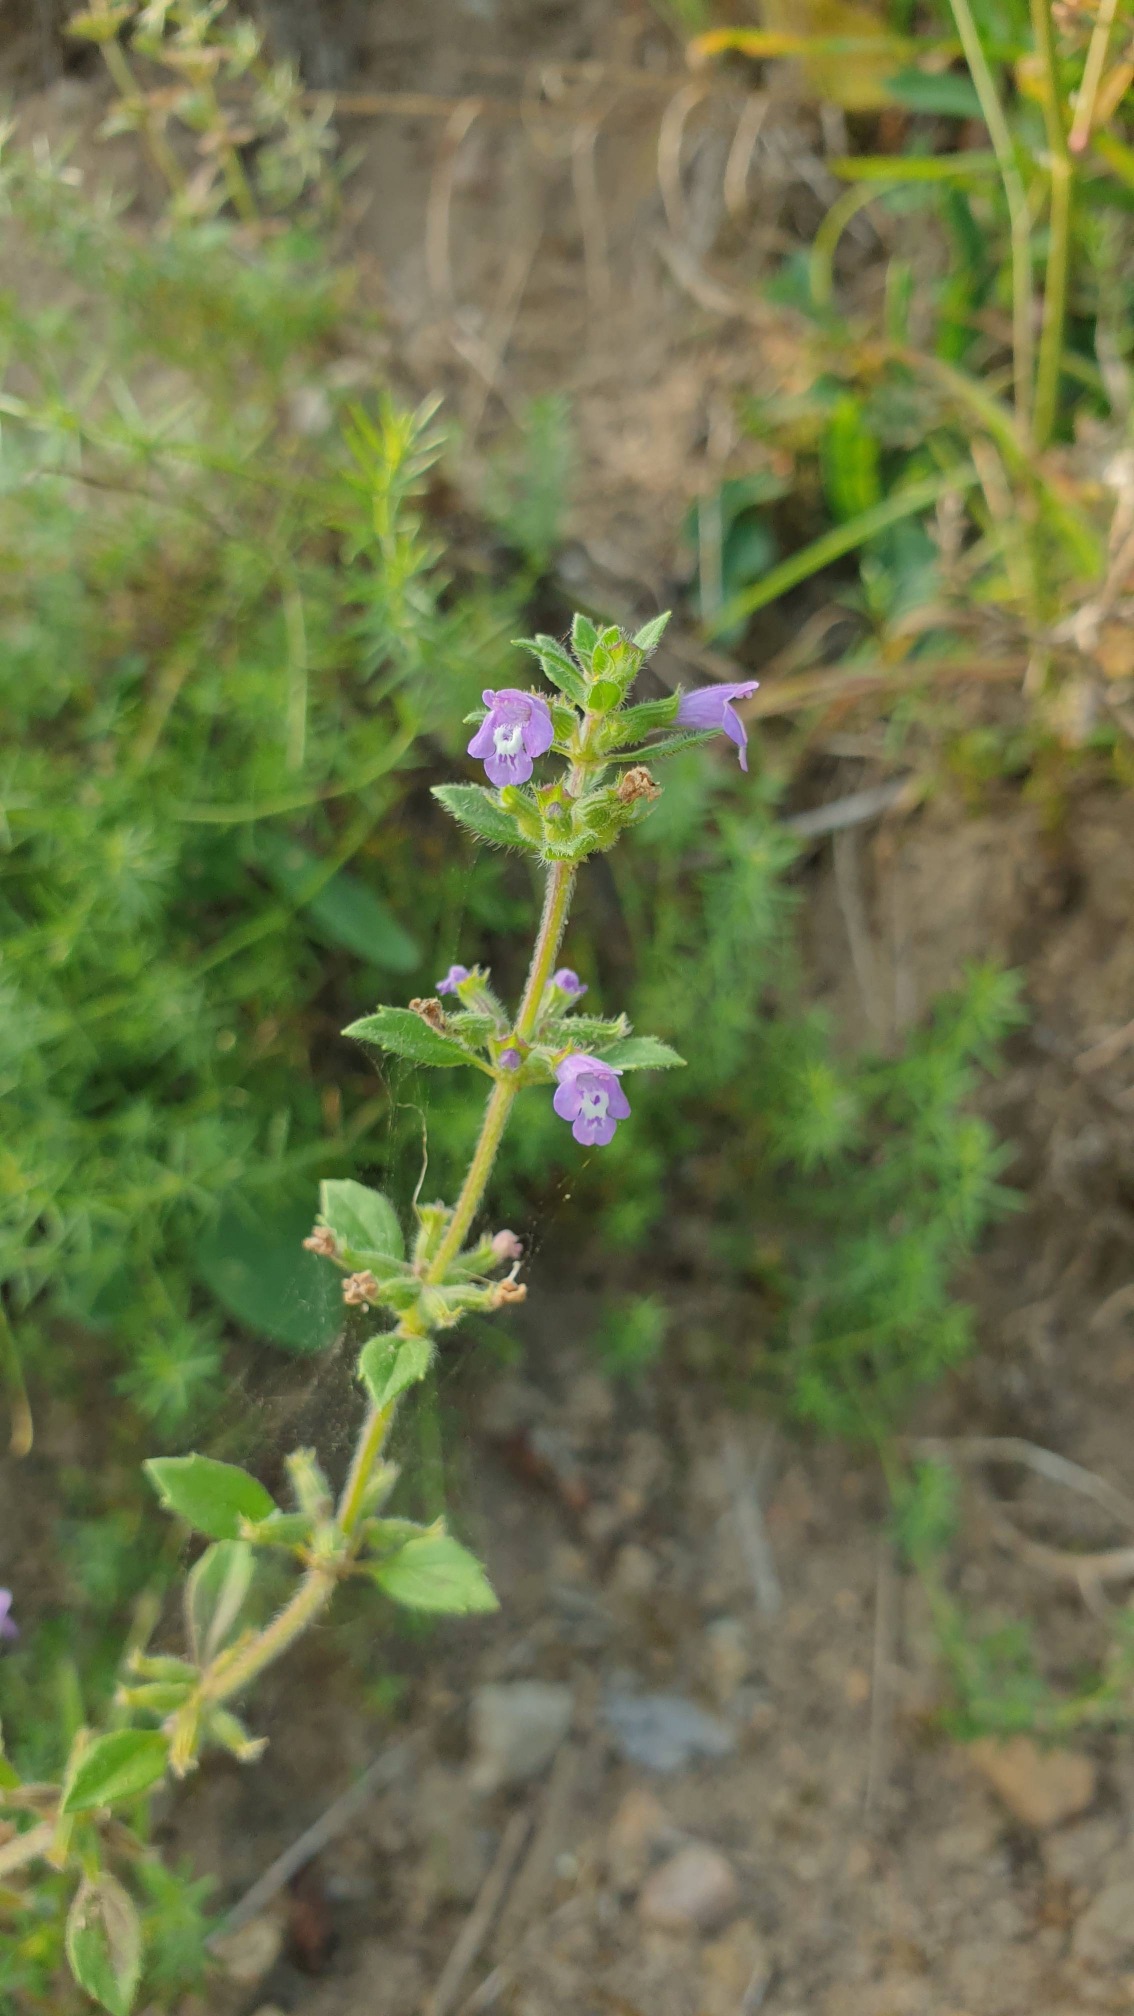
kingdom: Plantae
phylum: Tracheophyta
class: Magnoliopsida
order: Lamiales
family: Lamiaceae
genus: Clinopodium
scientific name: Clinopodium acinos
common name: Voldtimian
